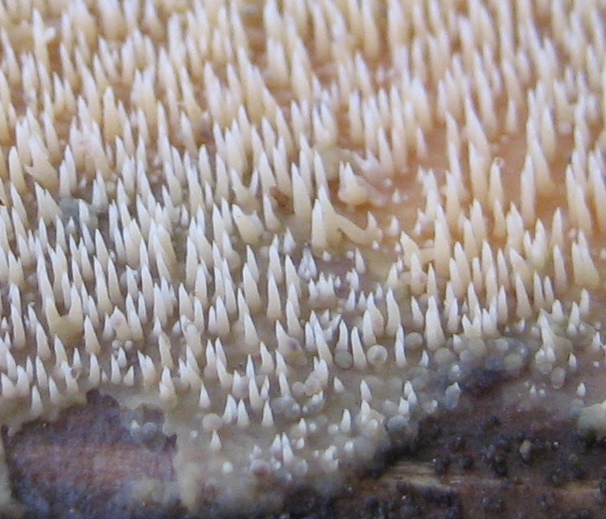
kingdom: Fungi
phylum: Basidiomycota
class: Agaricomycetes
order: Polyporales
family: Meruliaceae
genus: Mycoacia
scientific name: Mycoacia uda
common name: citrongul vokspig
